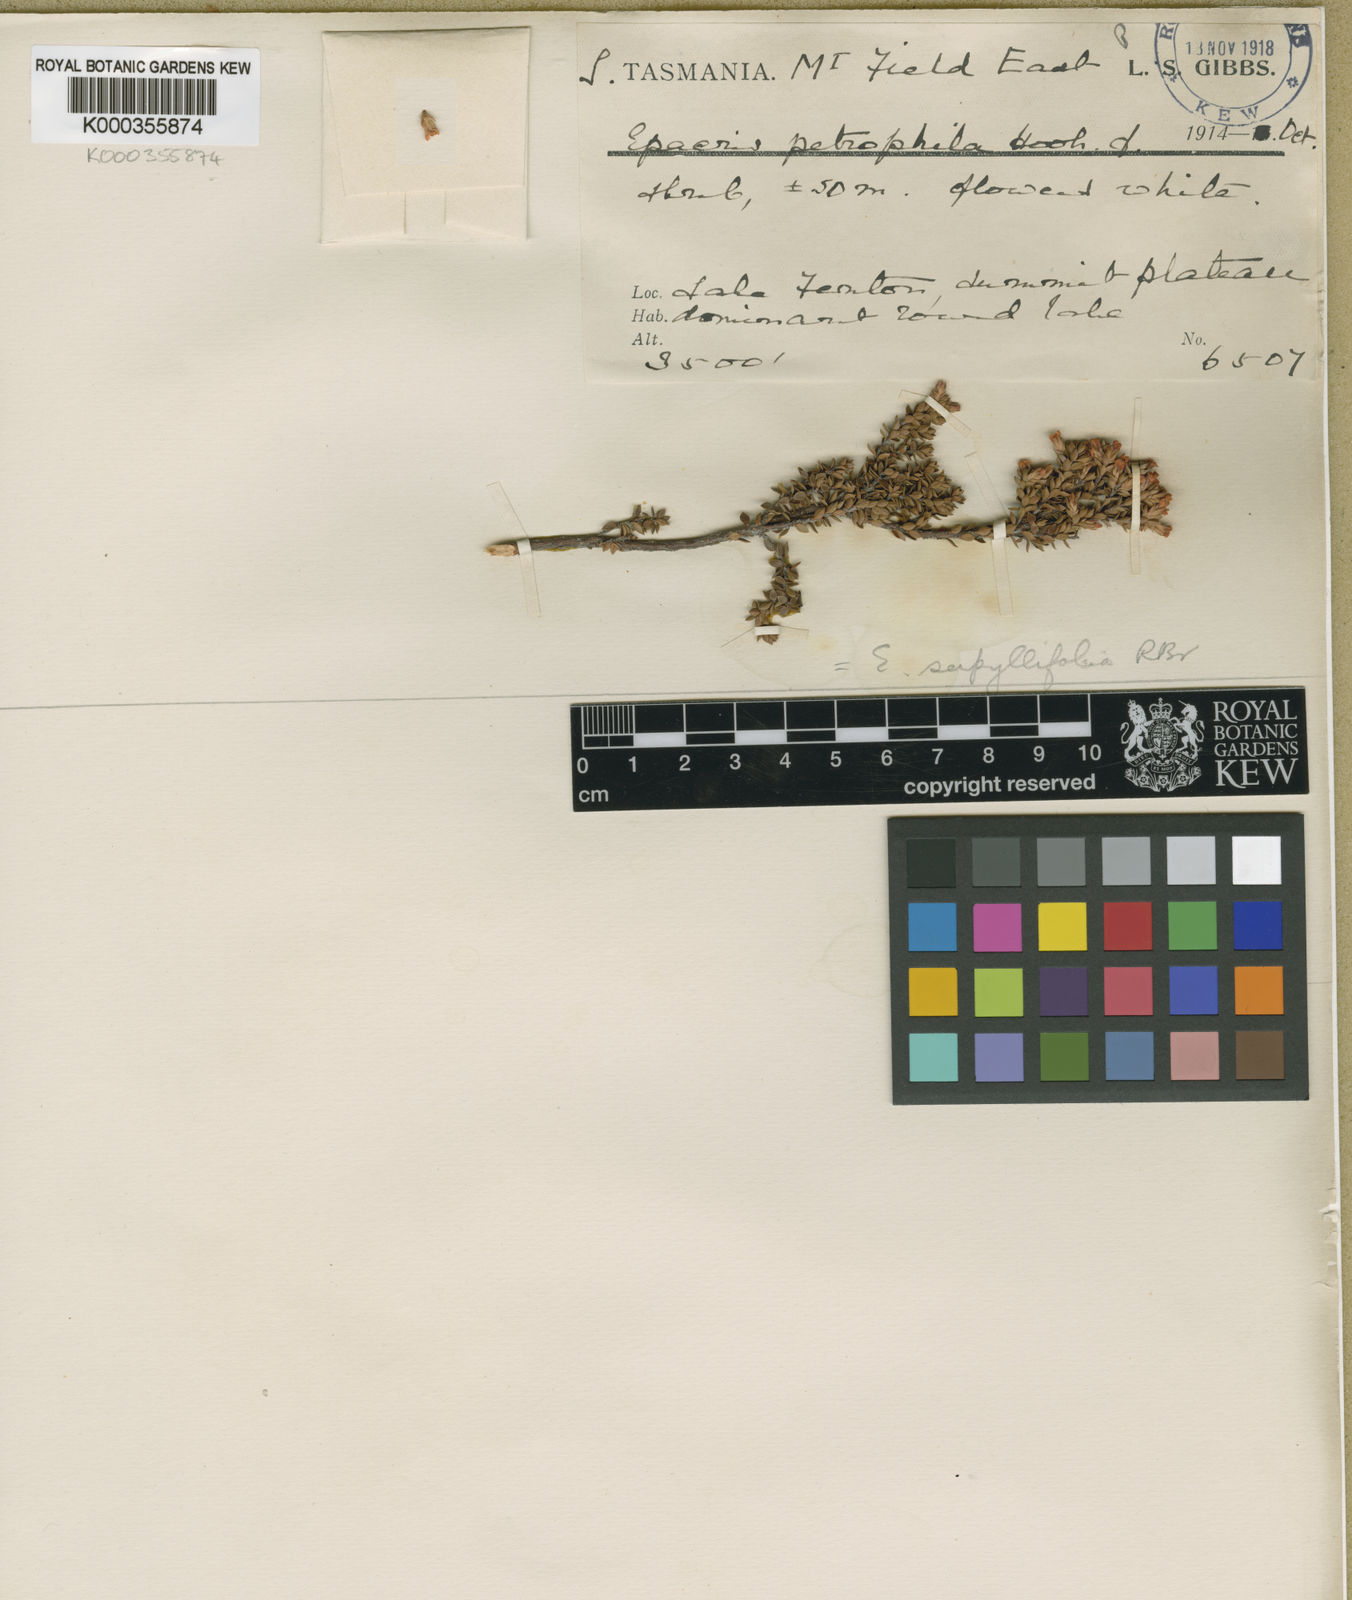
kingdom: Plantae
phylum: Tracheophyta
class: Magnoliopsida
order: Ericales
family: Ericaceae
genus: Epacris
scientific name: Epacris serpyllifolia
